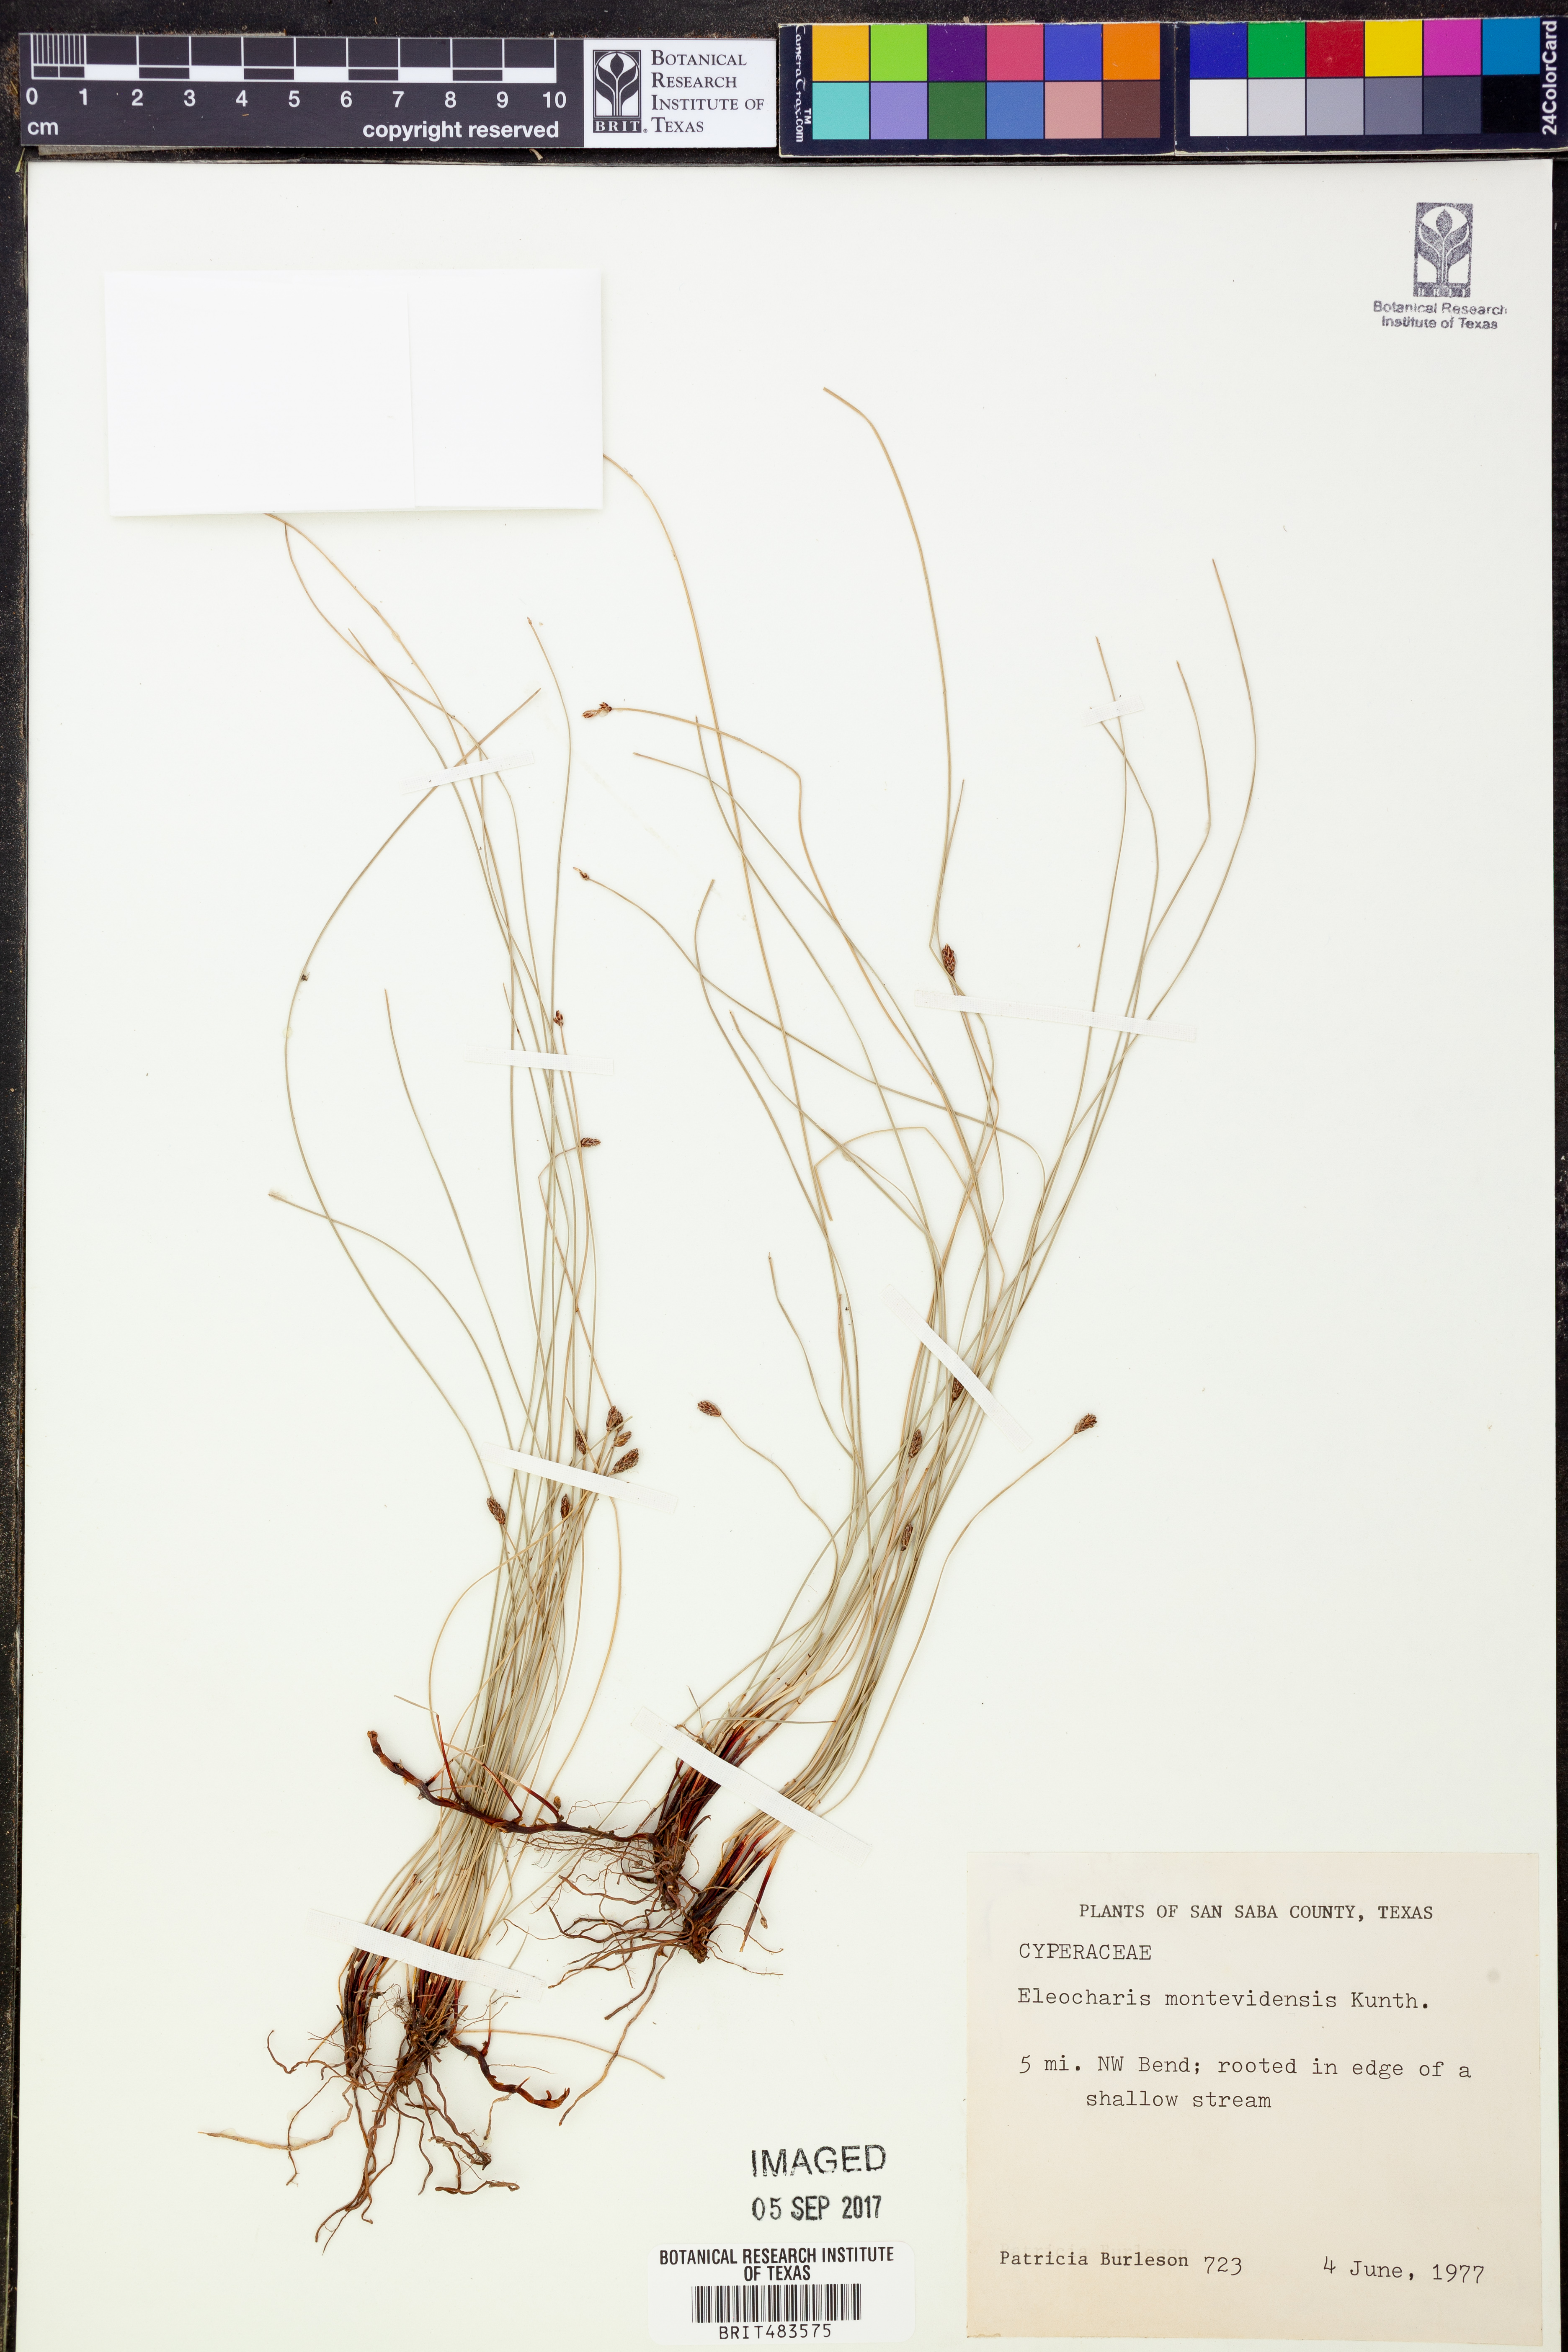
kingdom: Plantae
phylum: Tracheophyta
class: Liliopsida
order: Poales
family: Cyperaceae
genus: Eleocharis
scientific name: Eleocharis montevidensis
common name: Sand spike-rush
